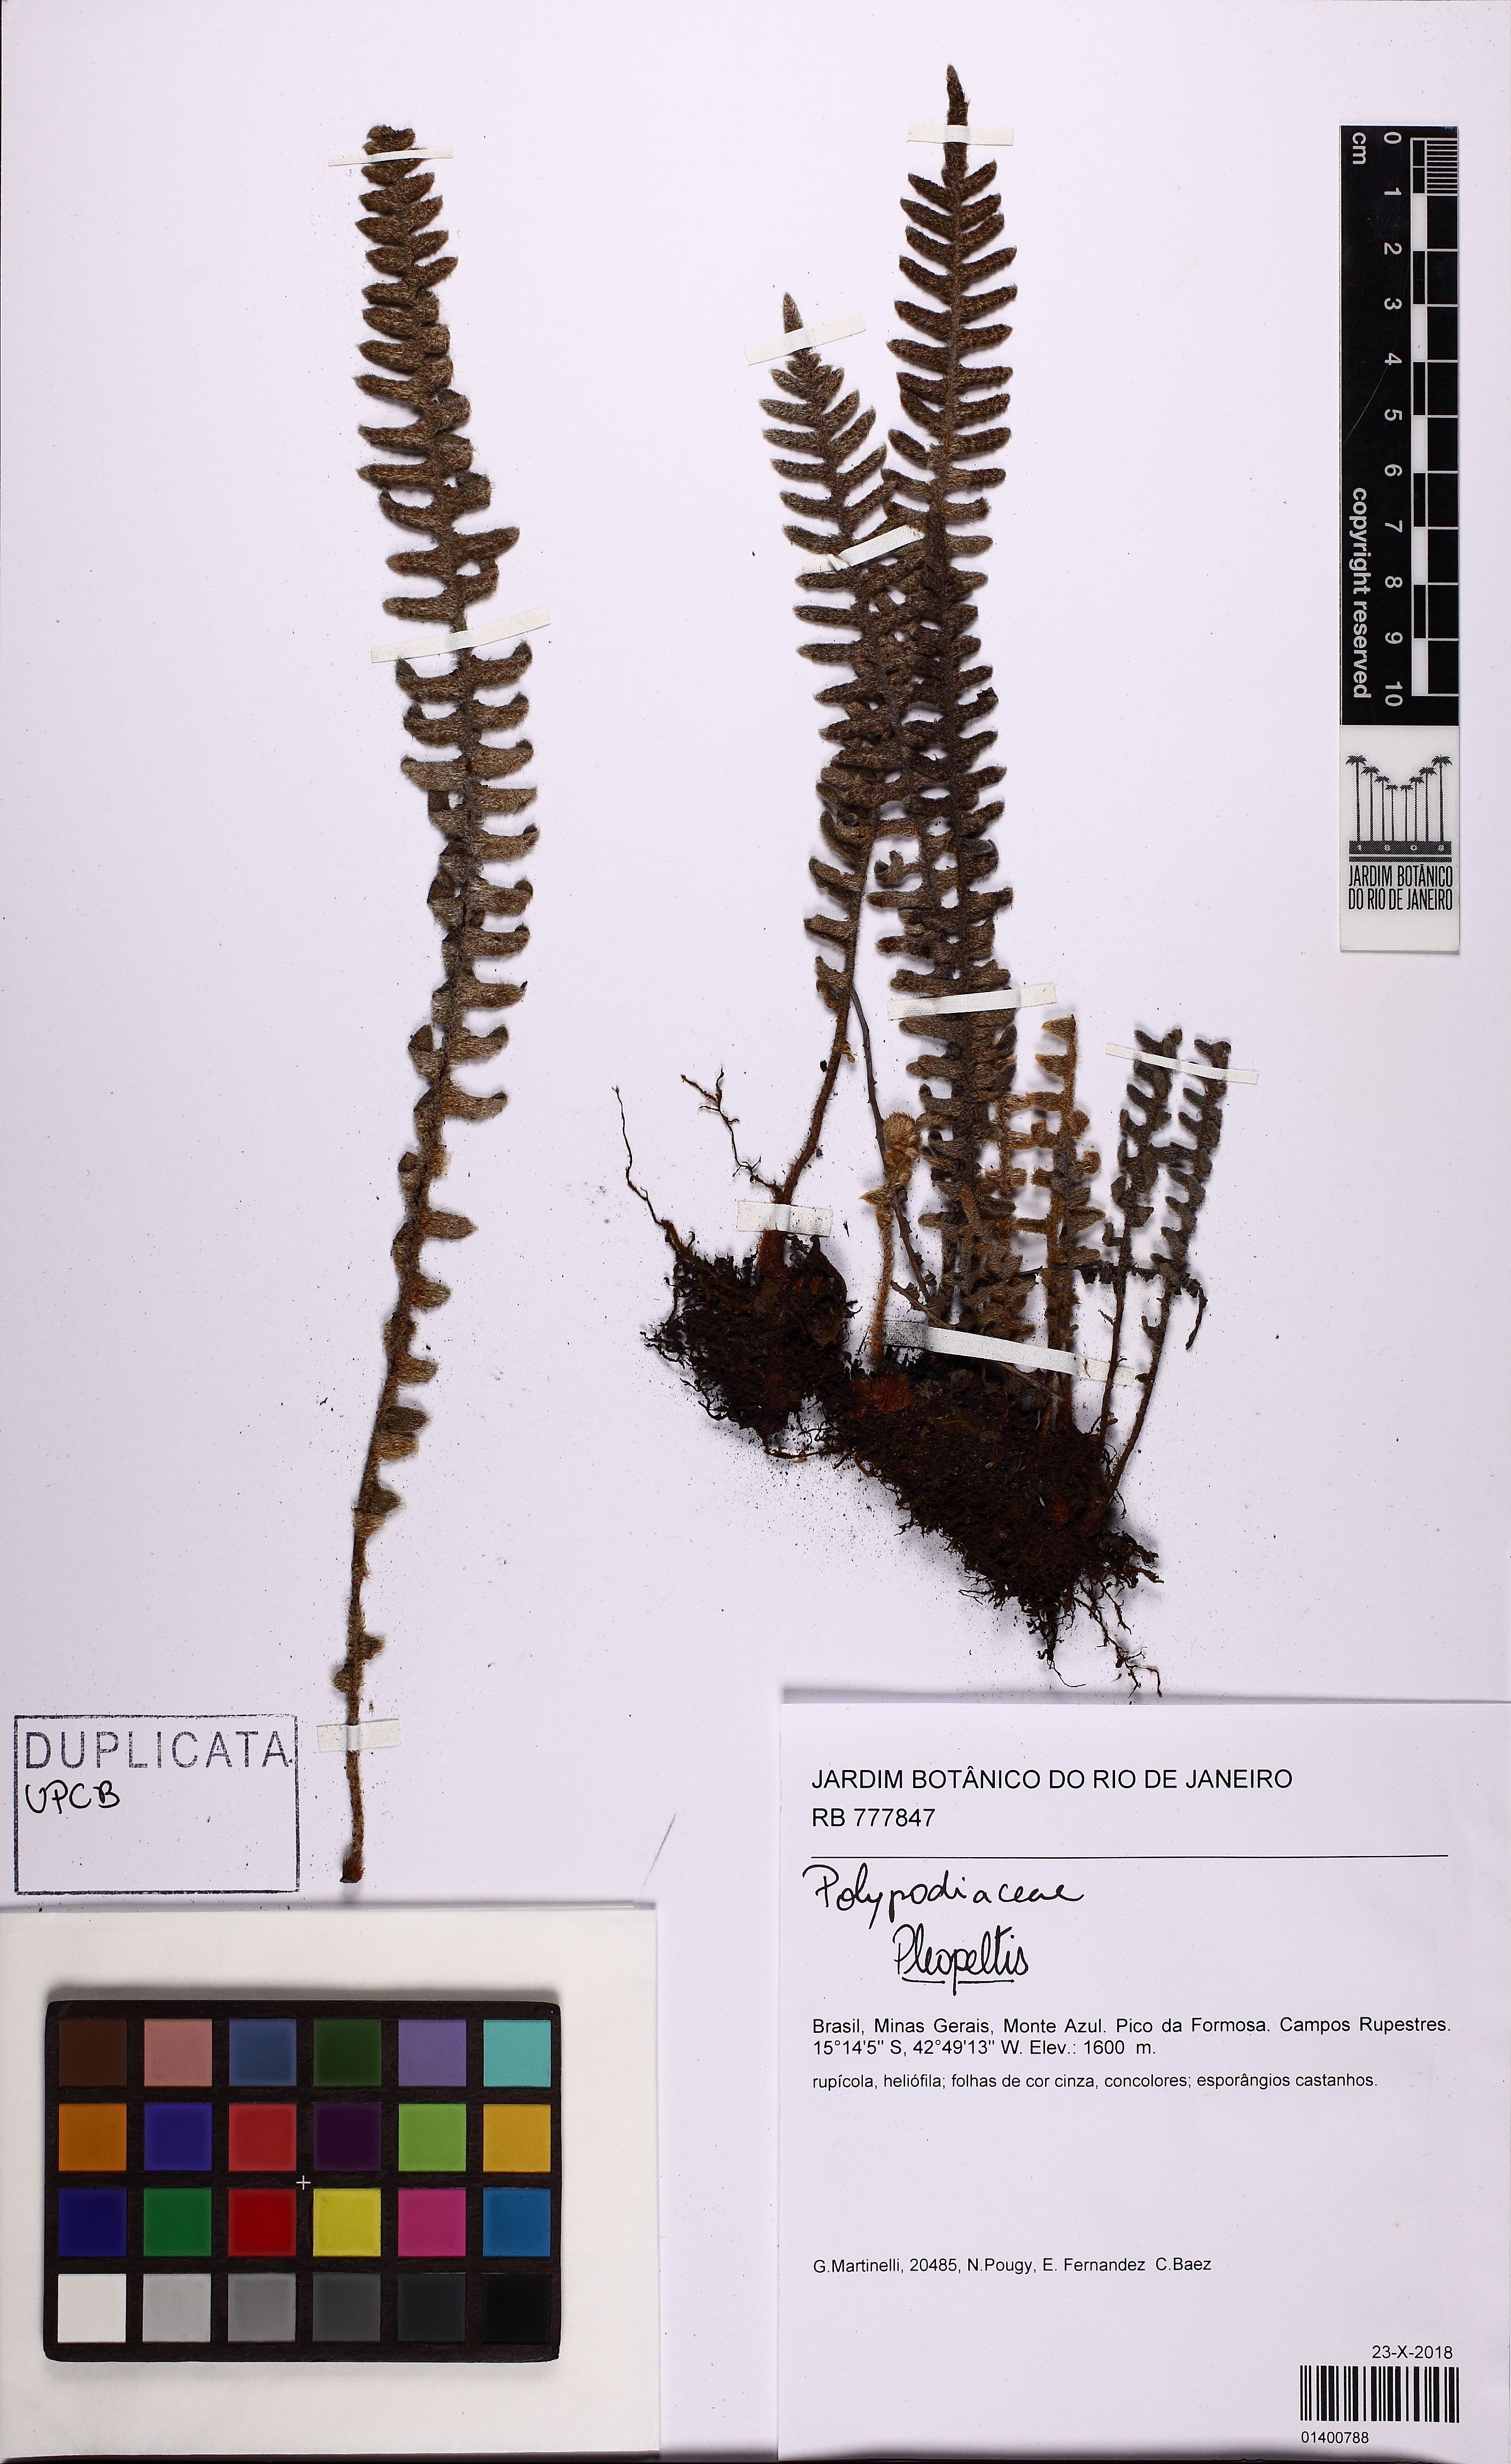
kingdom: Plantae
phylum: Tracheophyta
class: Polypodiopsida
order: Polypodiales
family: Polypodiaceae
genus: Pleopeltis
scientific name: Pleopeltis minarum
